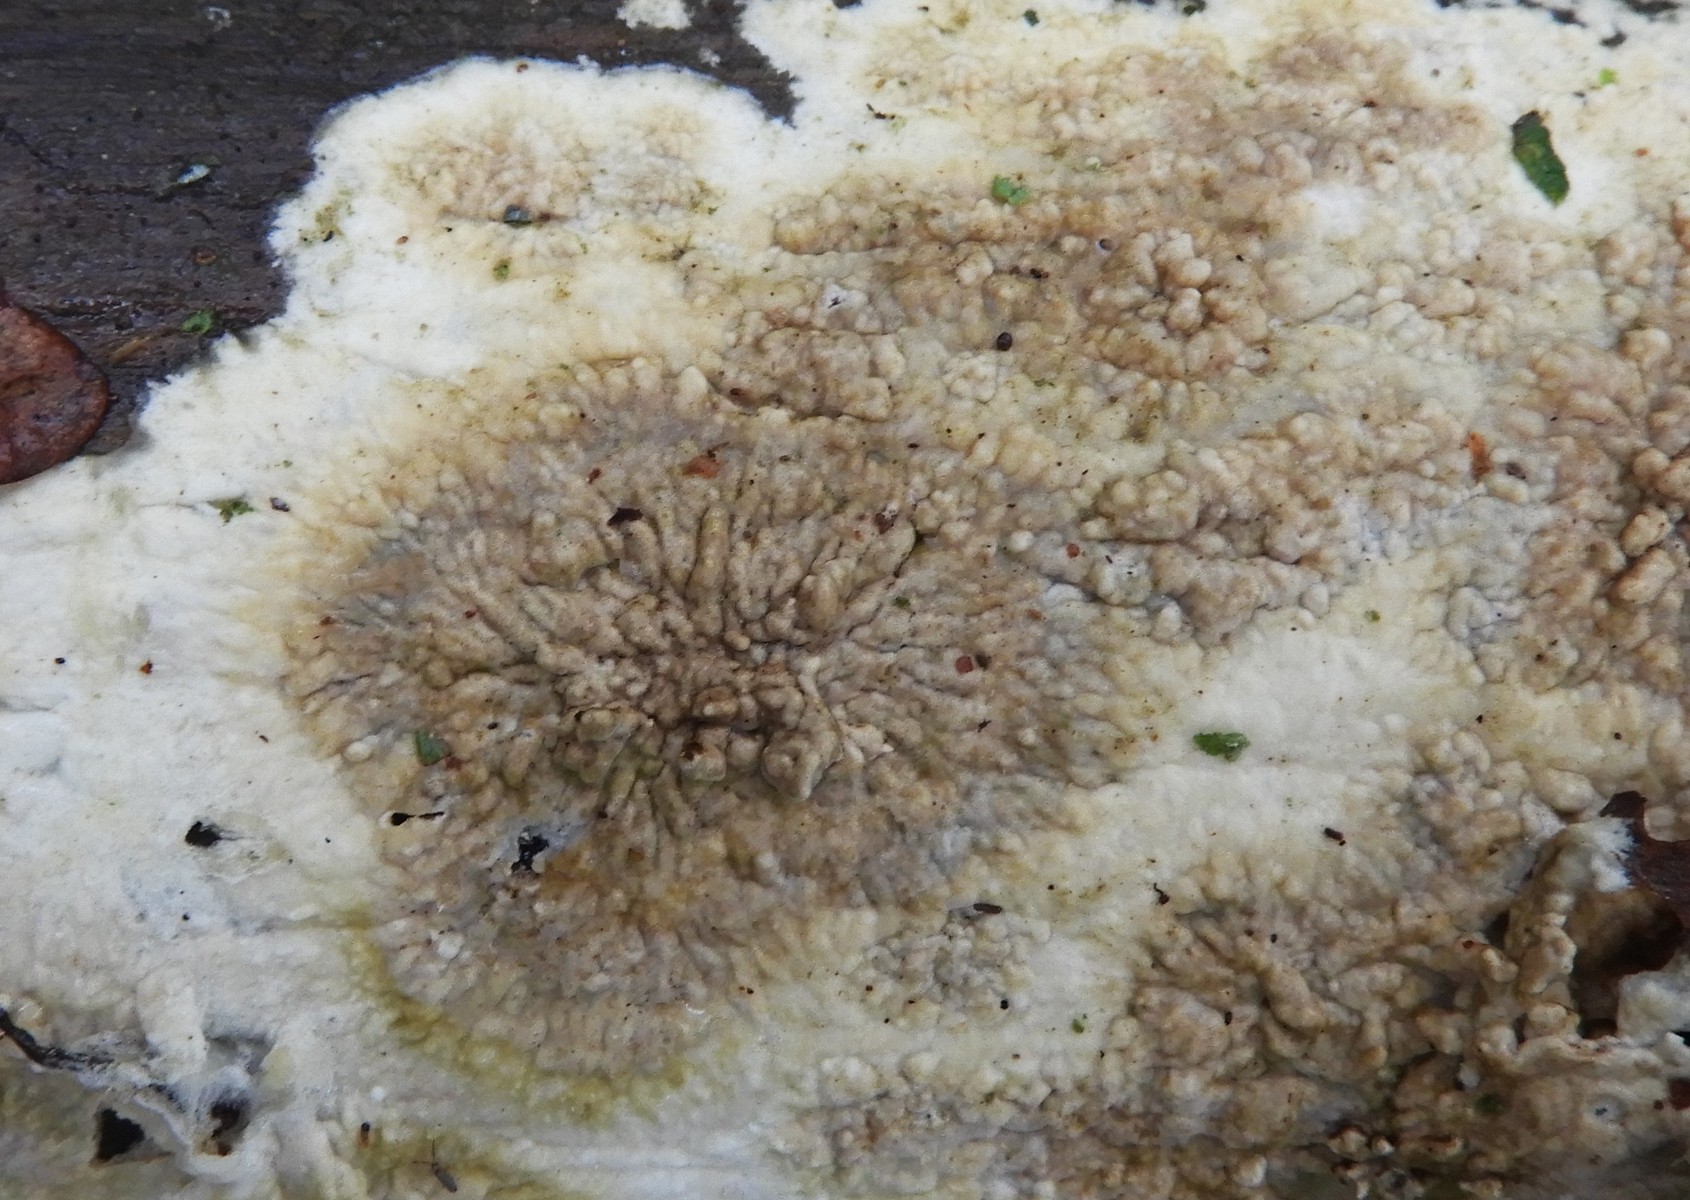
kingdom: Fungi
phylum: Basidiomycota
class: Agaricomycetes
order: Boletales
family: Coniophoraceae
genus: Coniophora
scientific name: Coniophora puteana
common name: gul tømmersvamp
